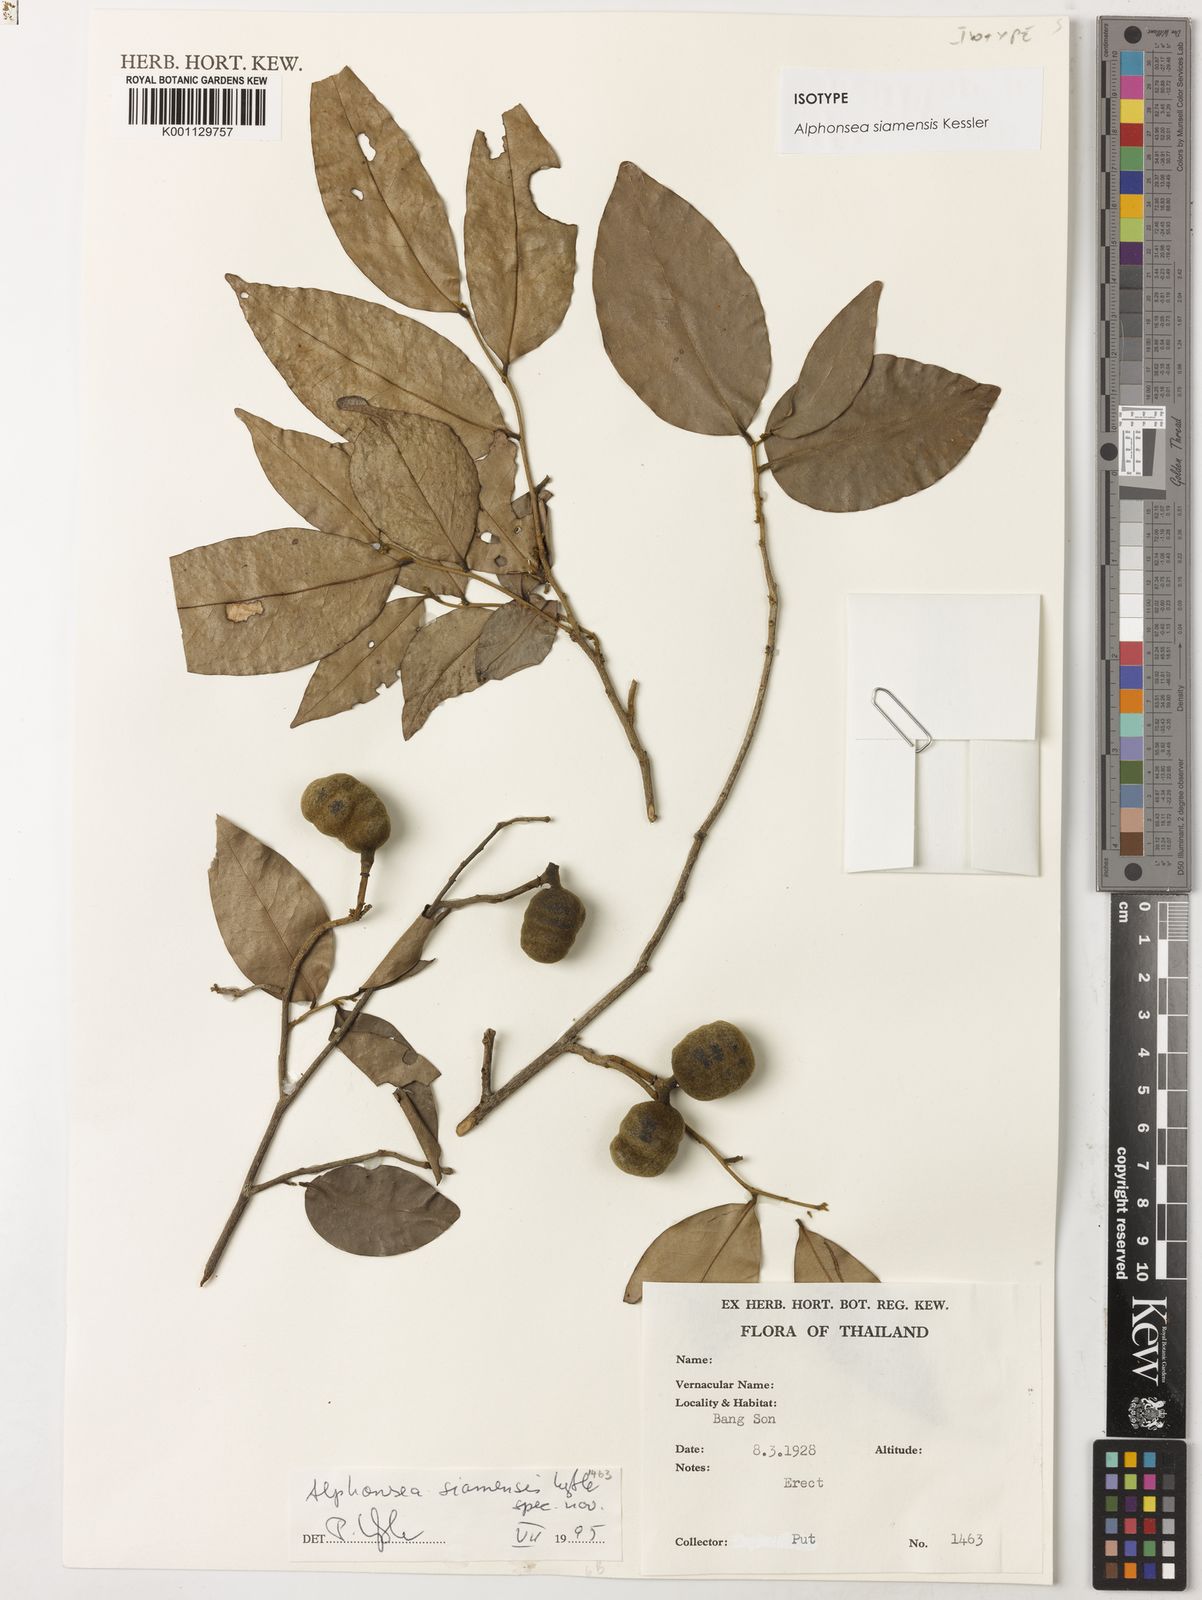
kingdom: Plantae
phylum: Tracheophyta
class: Magnoliopsida
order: Magnoliales
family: Annonaceae
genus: Alphonsea
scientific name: Alphonsea siamensis
